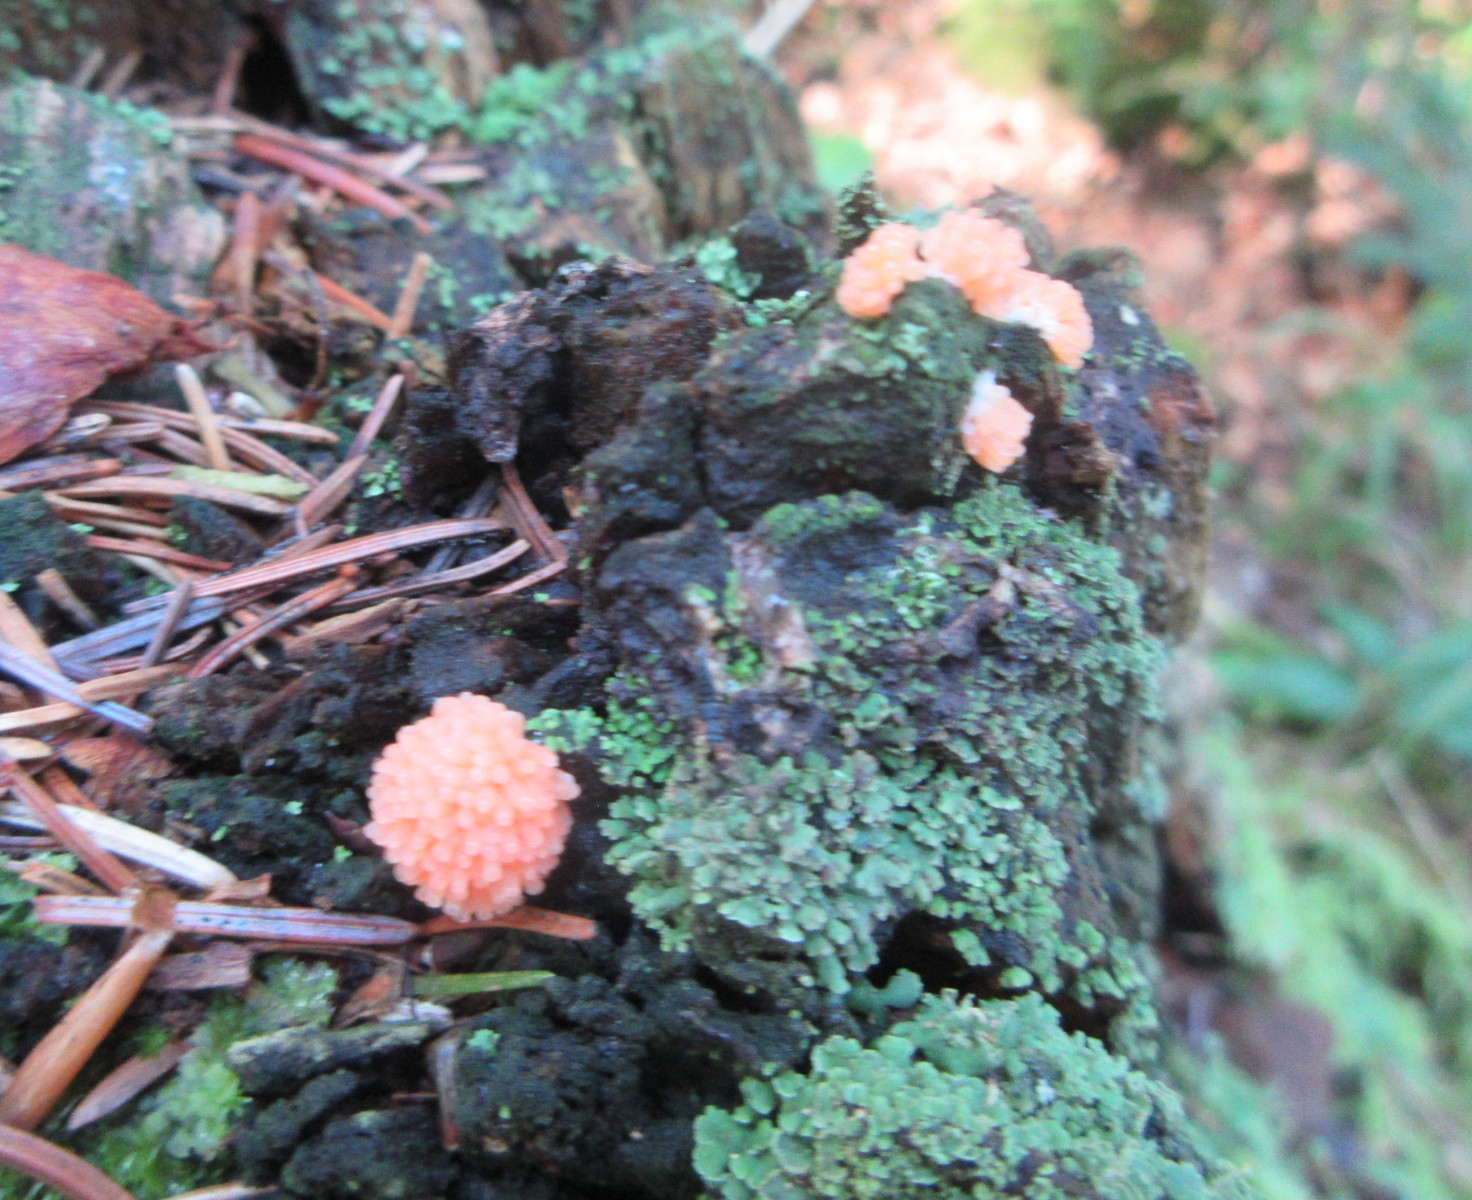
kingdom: Protozoa
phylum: Mycetozoa
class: Myxomycetes
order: Cribrariales
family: Tubiferaceae
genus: Tubifera
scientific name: Tubifera ferruginosa
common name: kanel-støvrør
